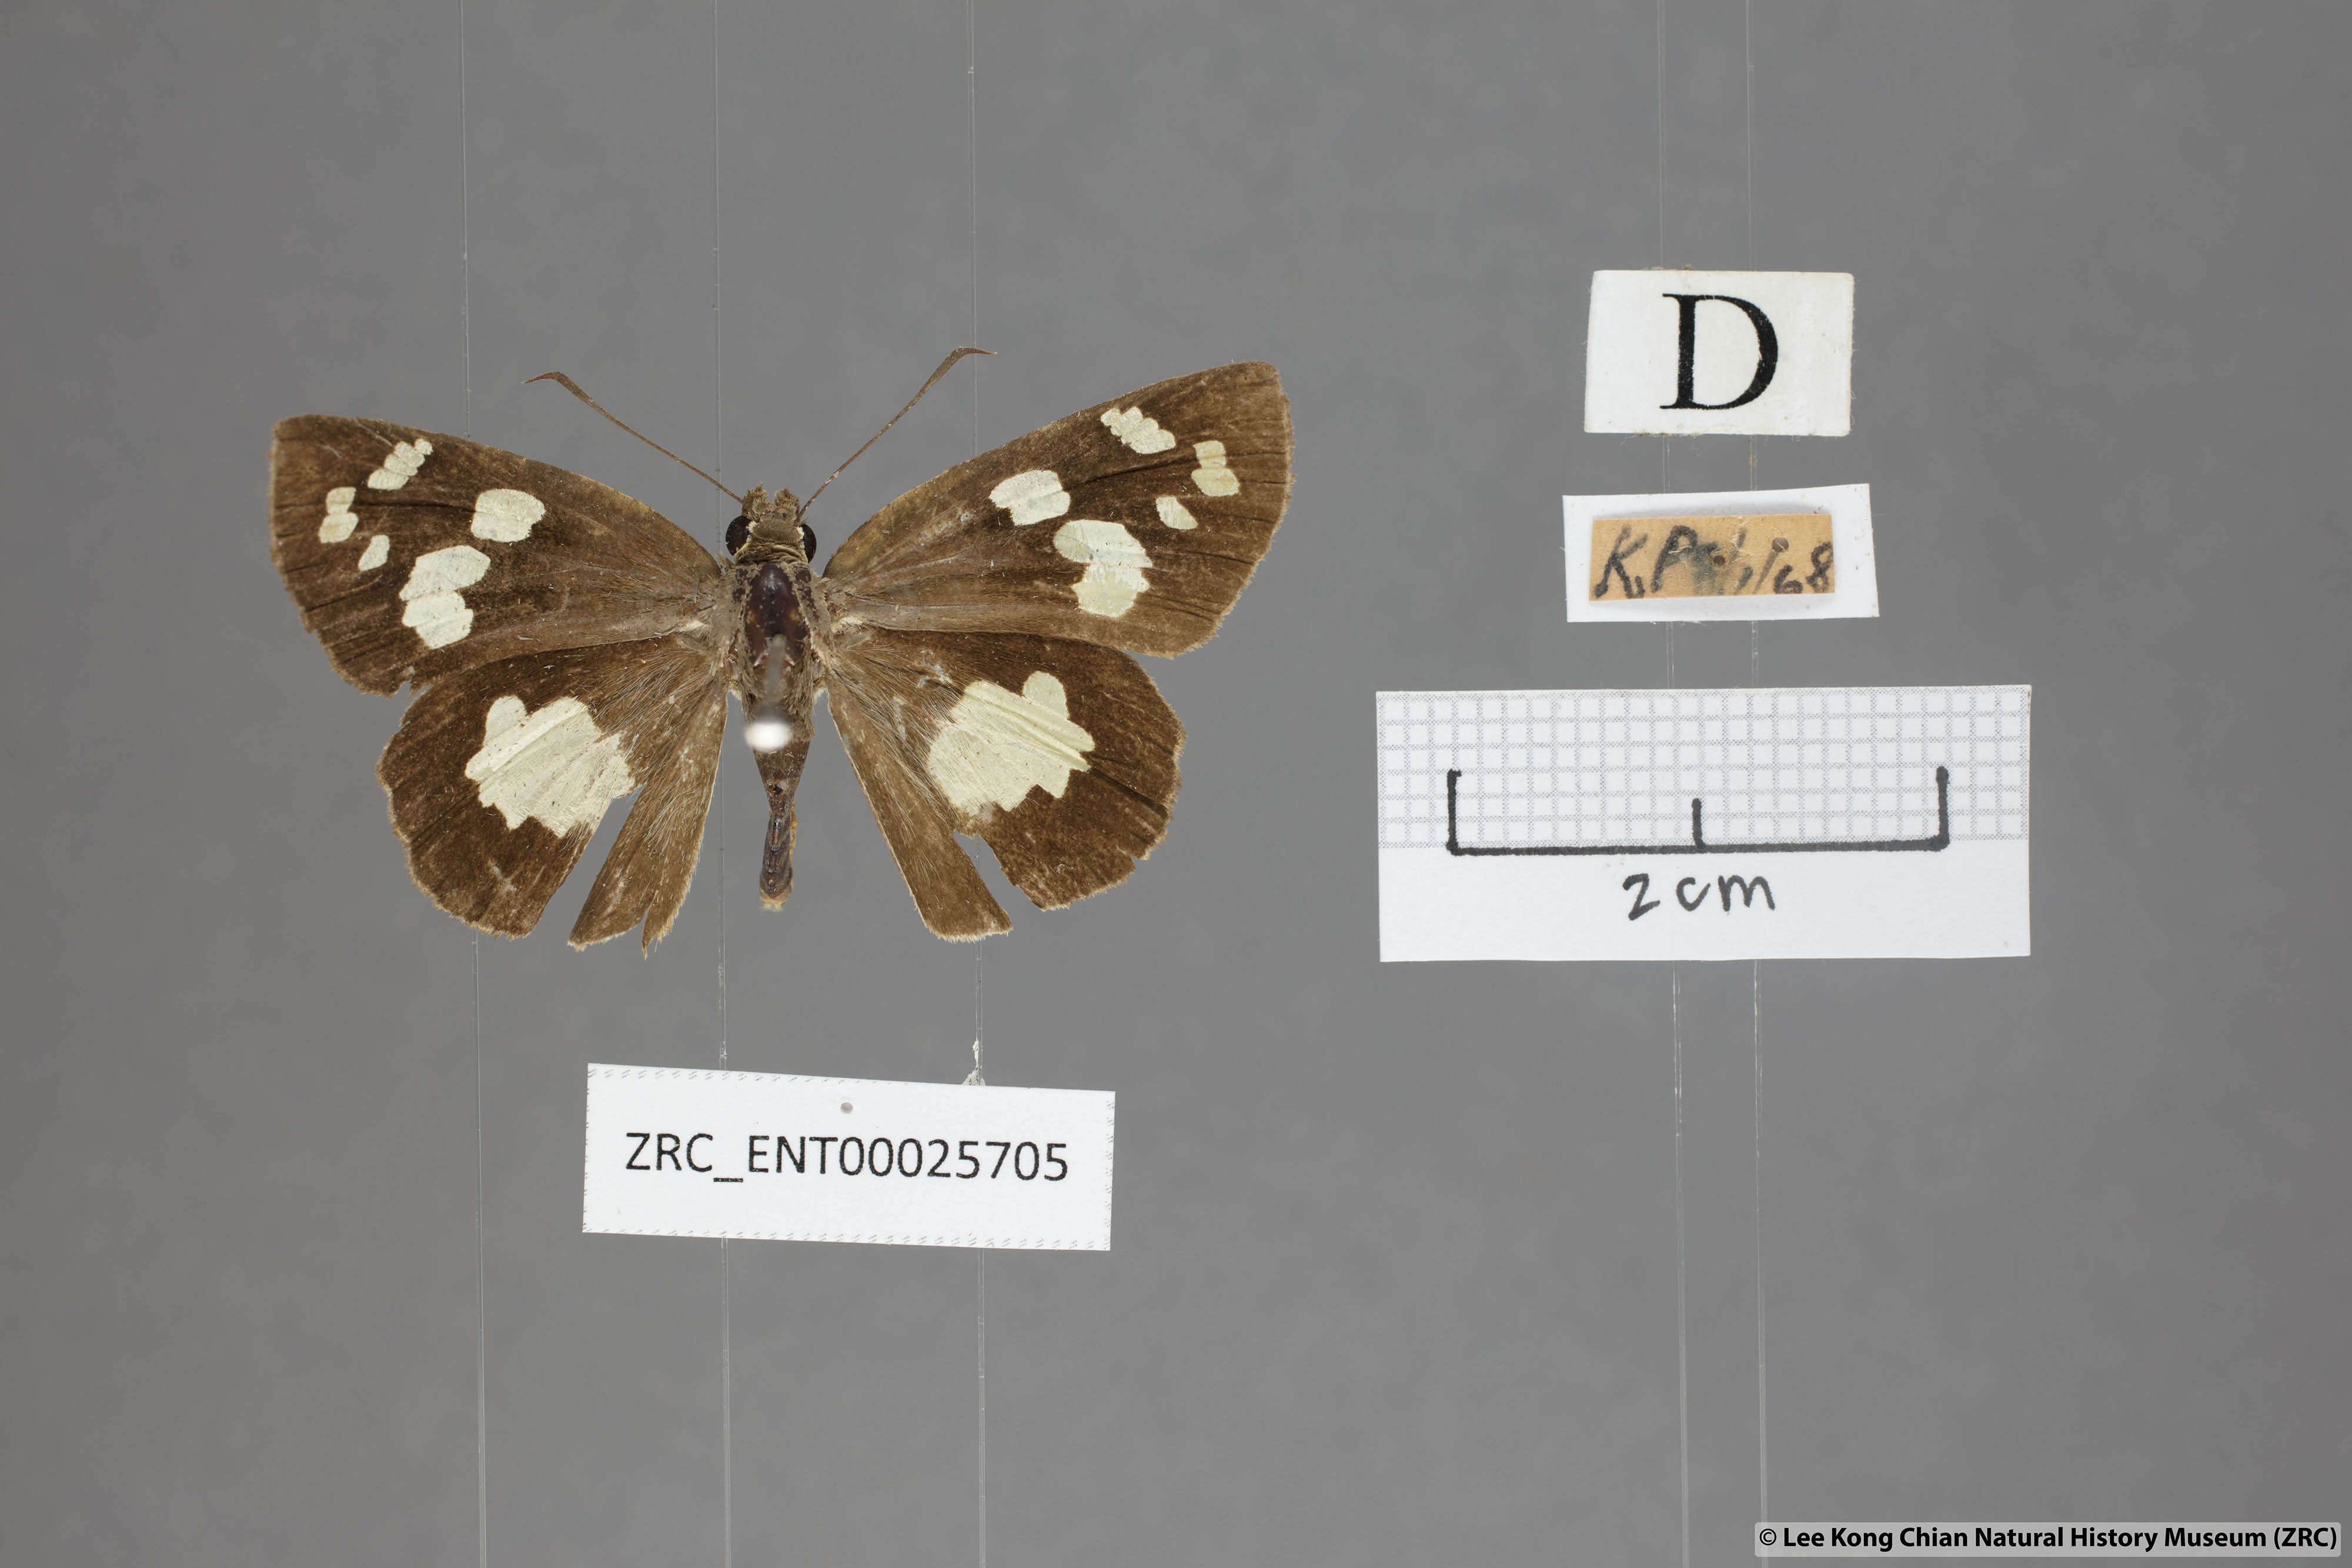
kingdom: Animalia
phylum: Arthropoda
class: Insecta
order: Lepidoptera
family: Hesperiidae
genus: Udaspes
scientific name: Udaspes folus
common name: Grass demon
